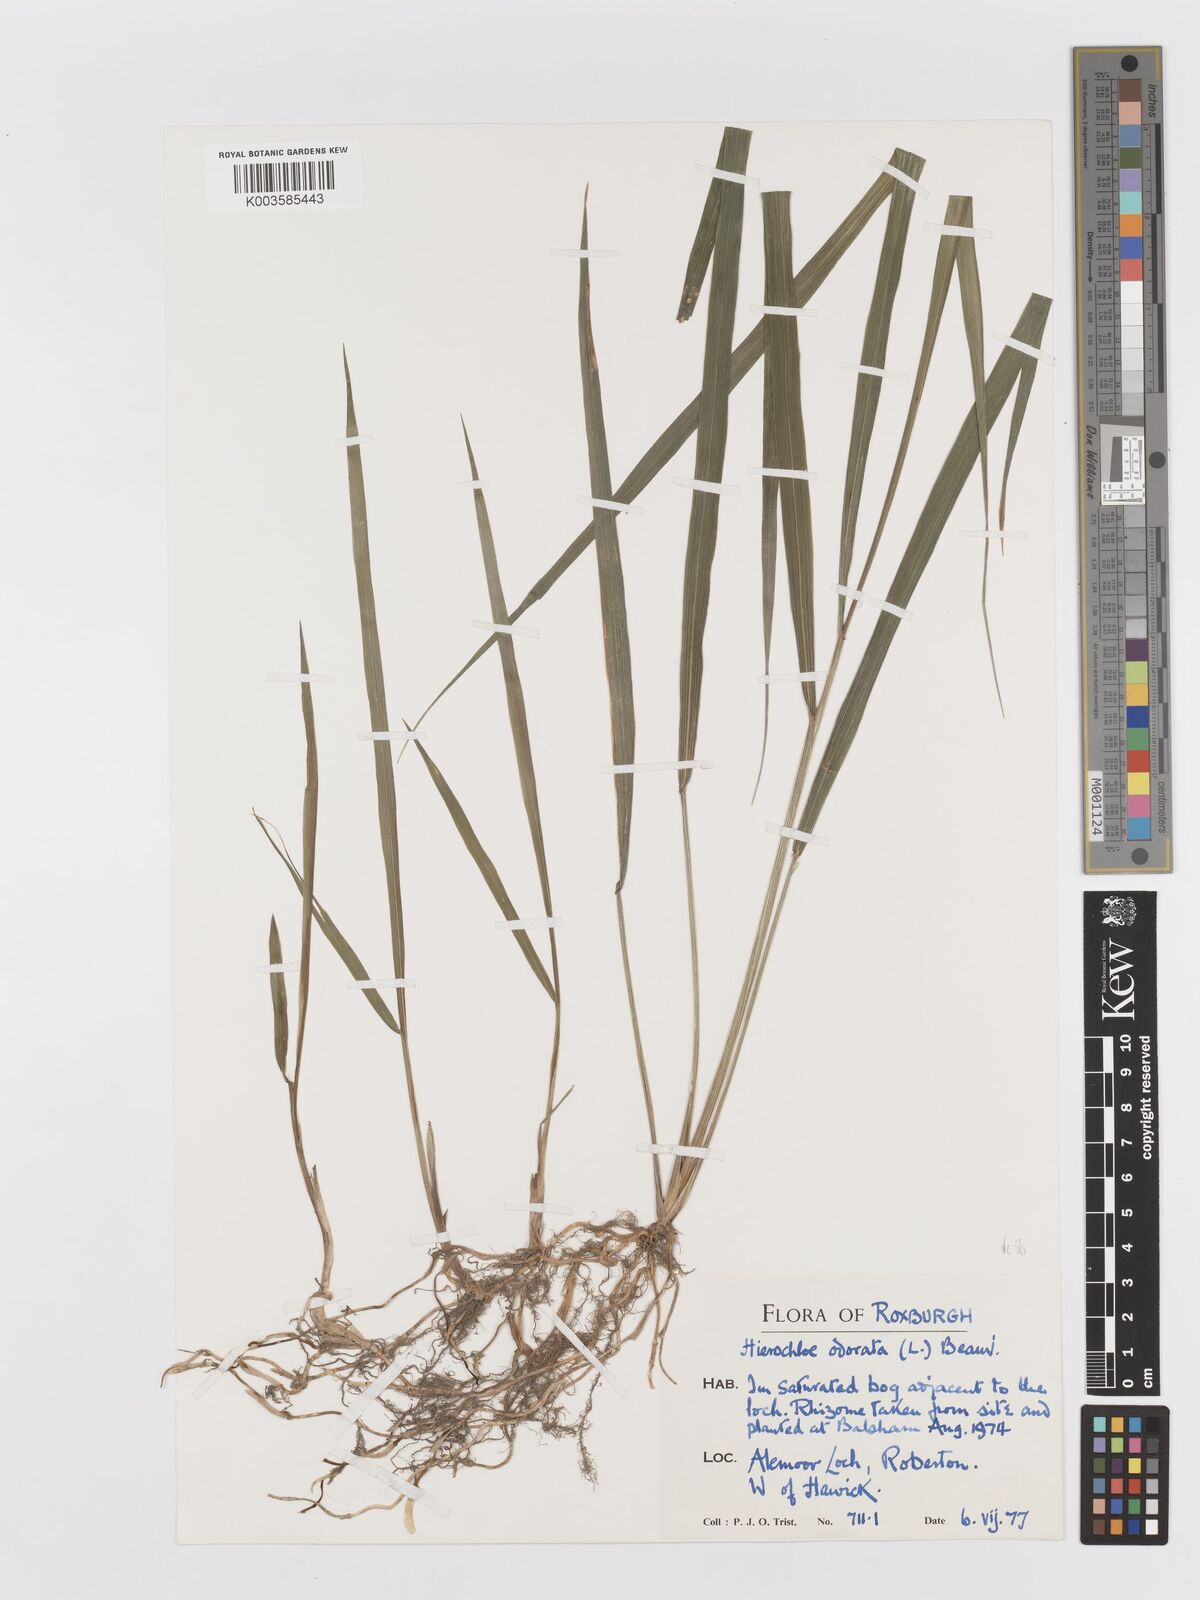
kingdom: Plantae
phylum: Tracheophyta
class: Liliopsida
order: Poales
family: Poaceae
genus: Anthoxanthum
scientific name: Anthoxanthum nitens
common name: Holy grass
